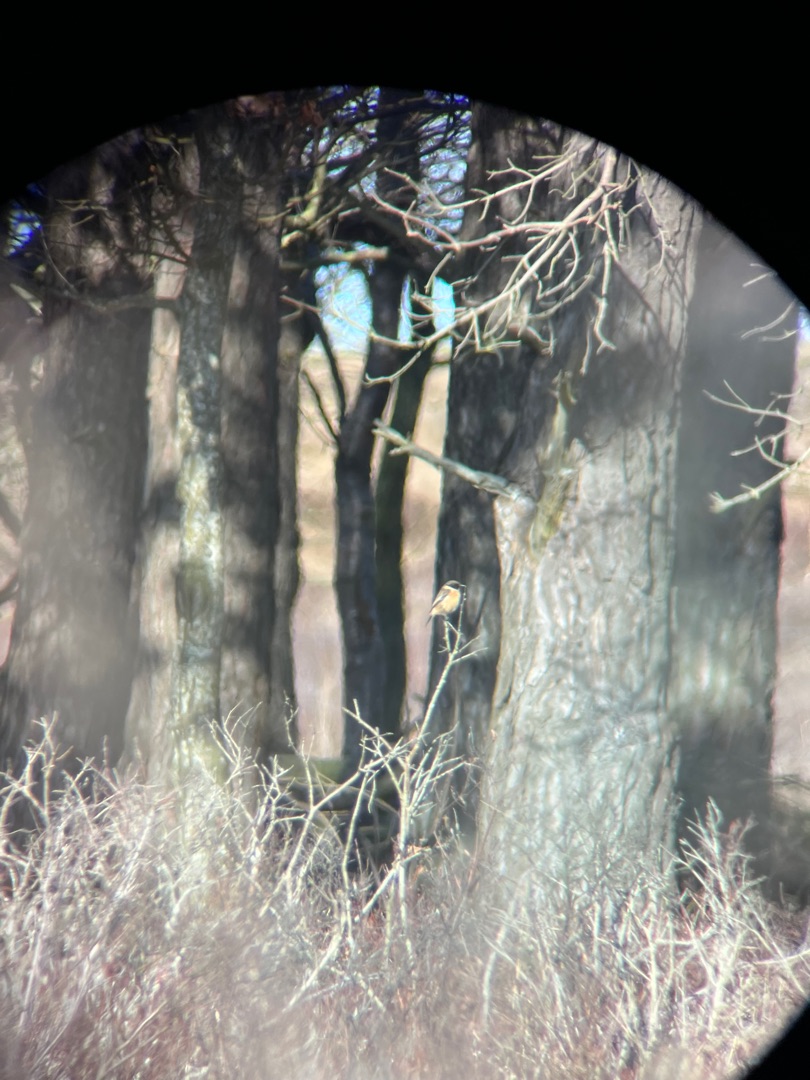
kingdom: Animalia
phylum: Chordata
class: Aves
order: Passeriformes
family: Muscicapidae
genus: Saxicola
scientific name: Saxicola rubicola
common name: Sortstrubet bynkefugl
